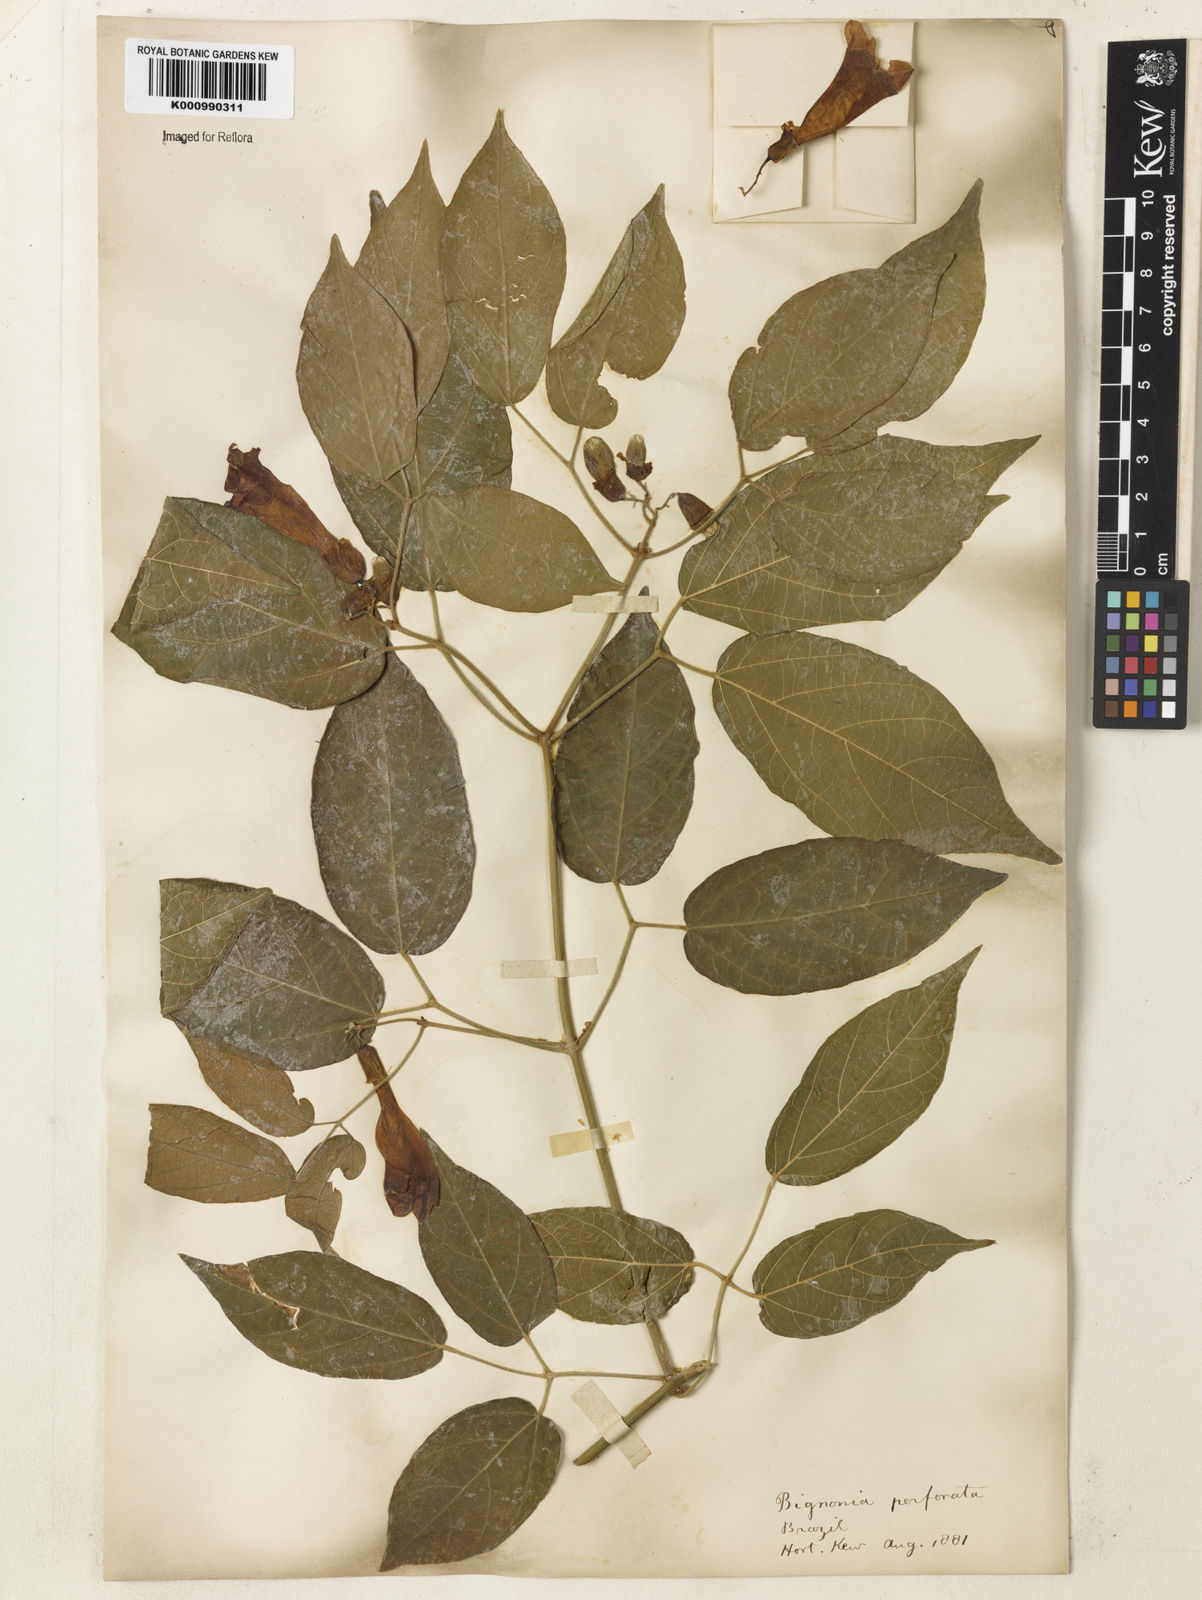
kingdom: Plantae
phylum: Tracheophyta
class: Magnoliopsida
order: Lamiales
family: Bignoniaceae
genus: Stizophyllum
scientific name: Stizophyllum perforatum
